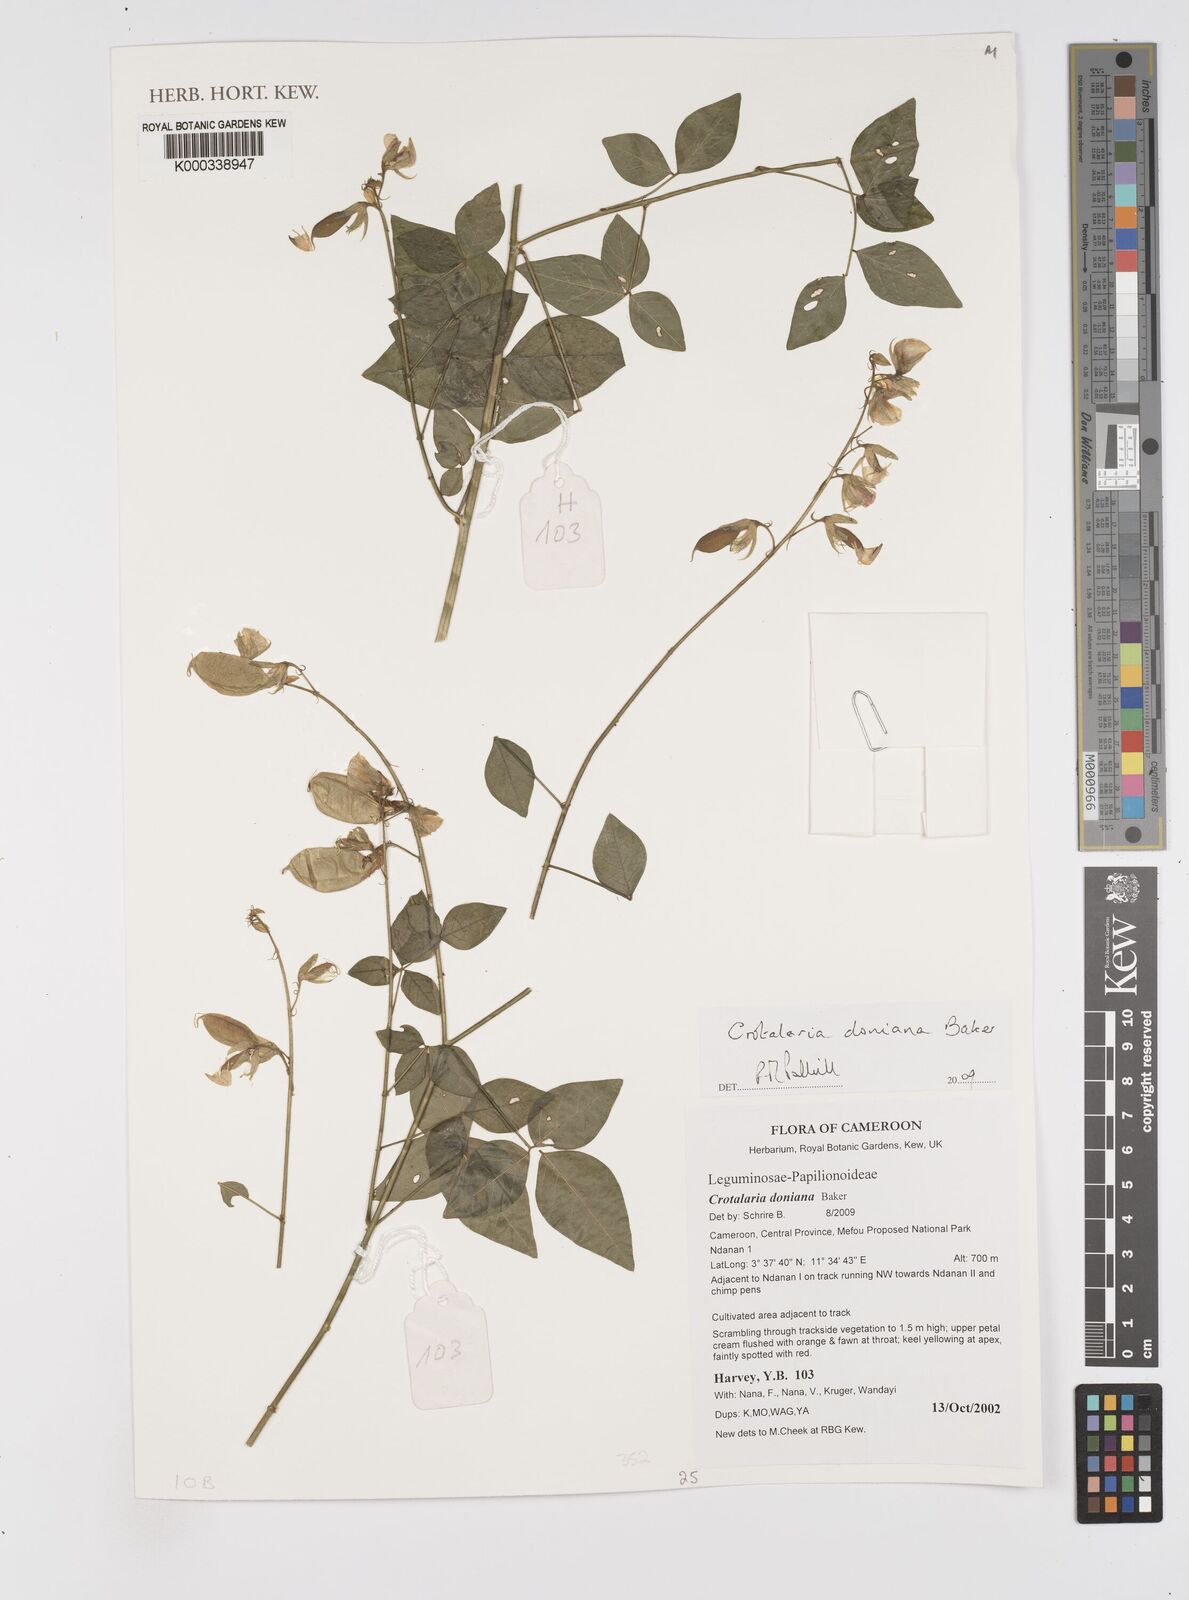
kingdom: Plantae
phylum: Tracheophyta
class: Magnoliopsida
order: Fabales
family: Fabaceae
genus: Crotalaria
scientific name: Crotalaria doniana
